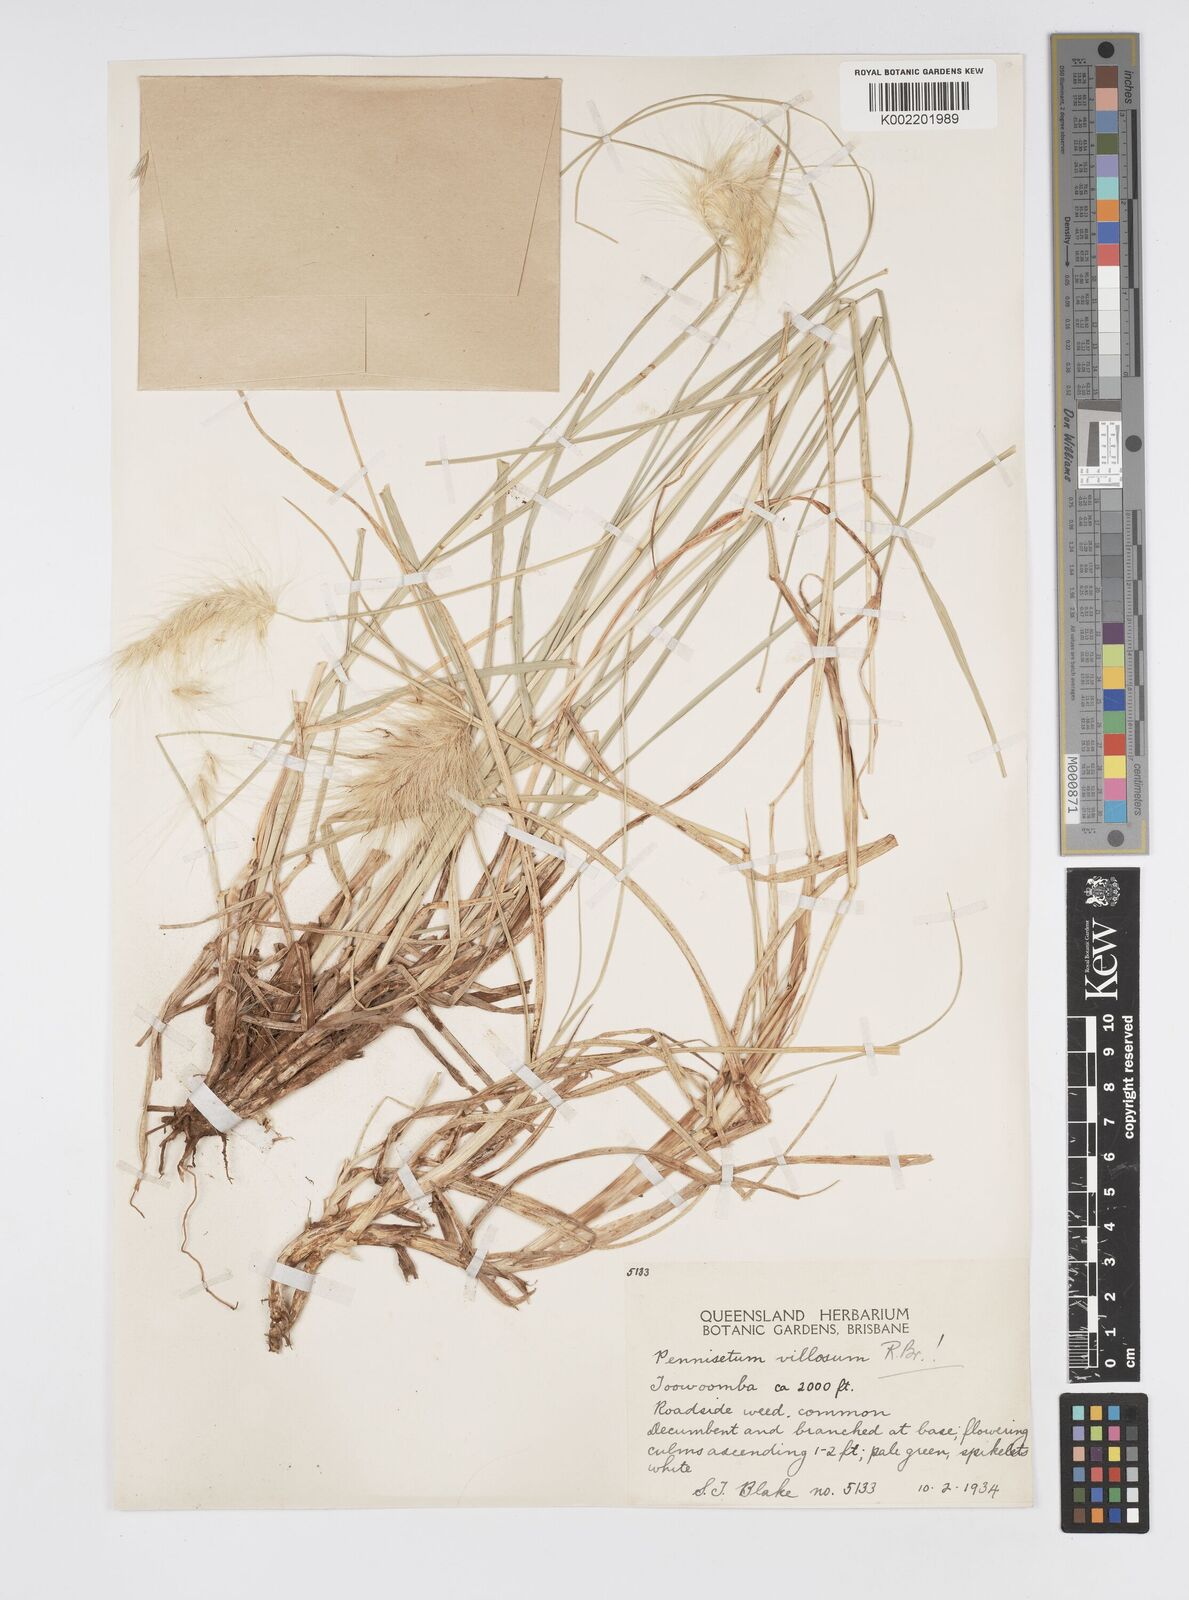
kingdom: Plantae
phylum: Tracheophyta
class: Liliopsida
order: Poales
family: Poaceae
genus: Cenchrus
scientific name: Cenchrus longisetus
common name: Feathertop
